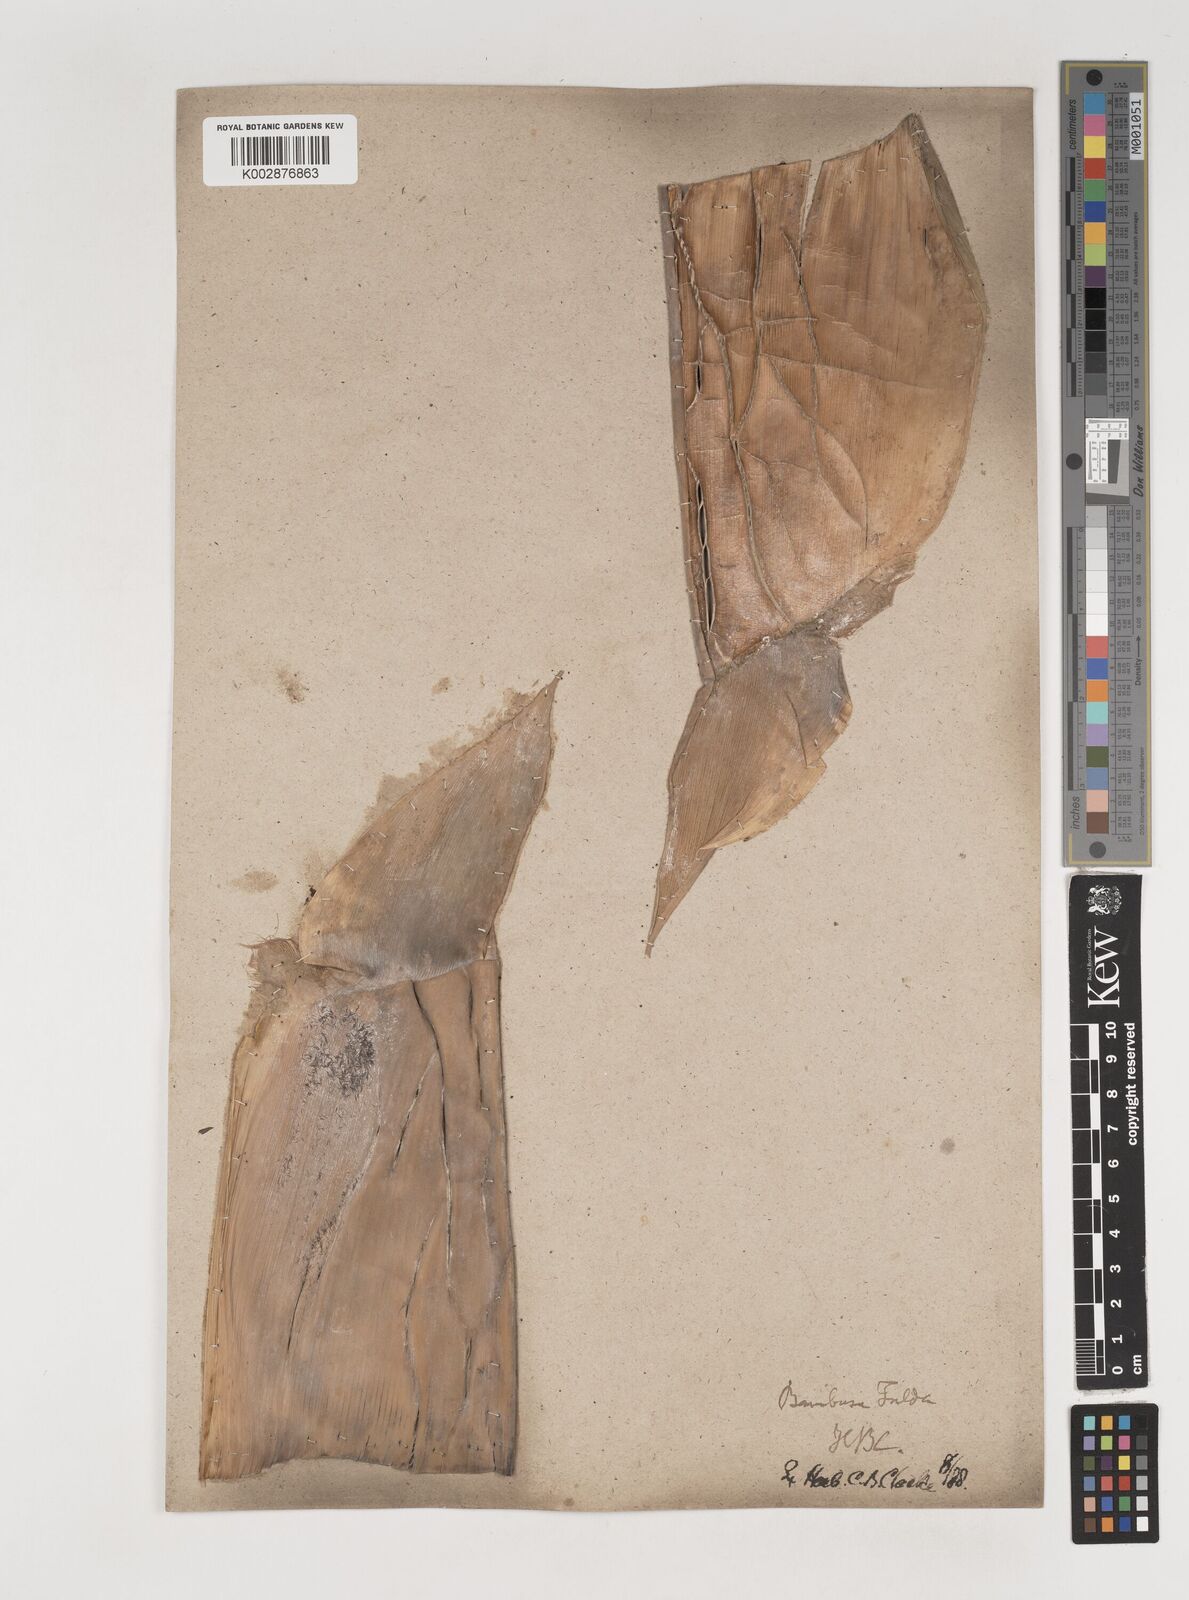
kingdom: Plantae
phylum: Tracheophyta
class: Liliopsida
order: Poales
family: Poaceae
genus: Bambusa
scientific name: Bambusa tuldoides
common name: Verdant bamboo
